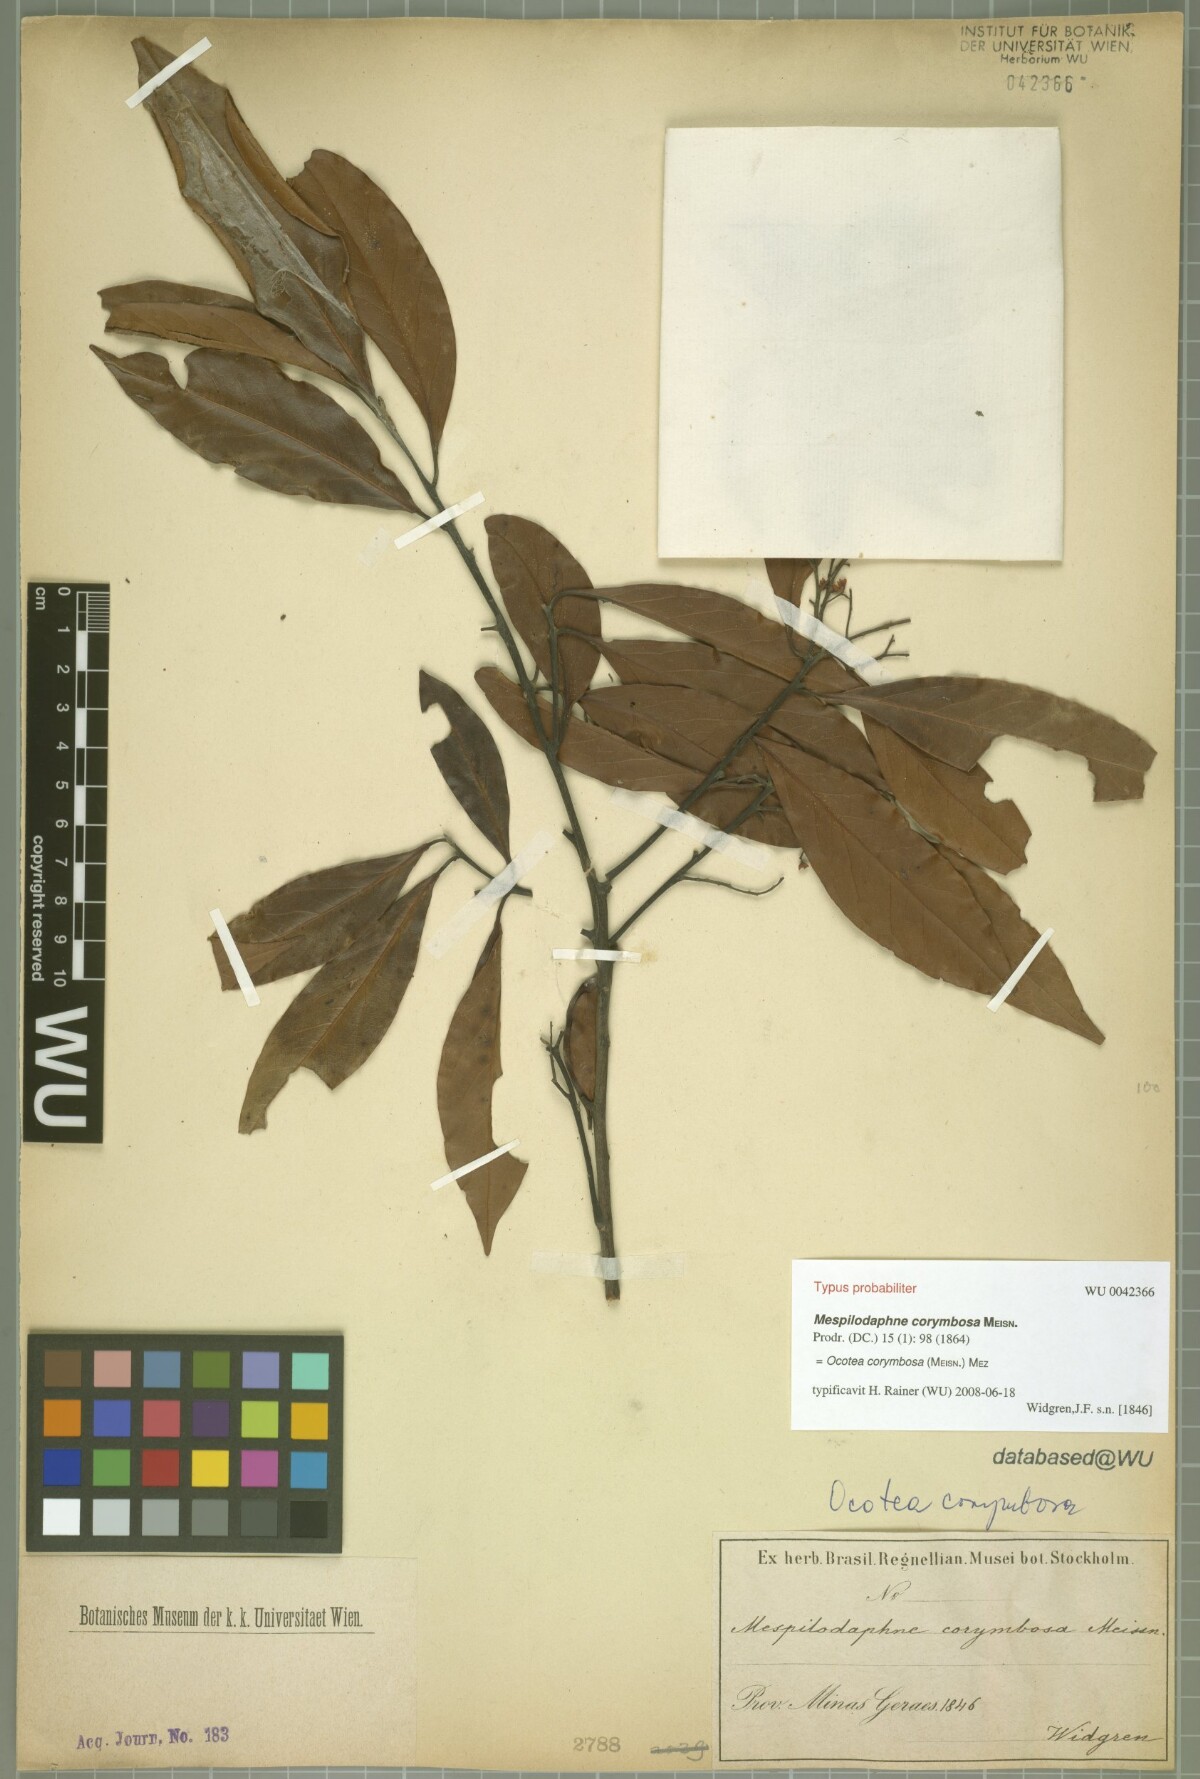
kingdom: Plantae
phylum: Tracheophyta
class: Magnoliopsida
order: Laurales
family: Lauraceae
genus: Mespilodaphne
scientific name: Mespilodaphne corymbosa
